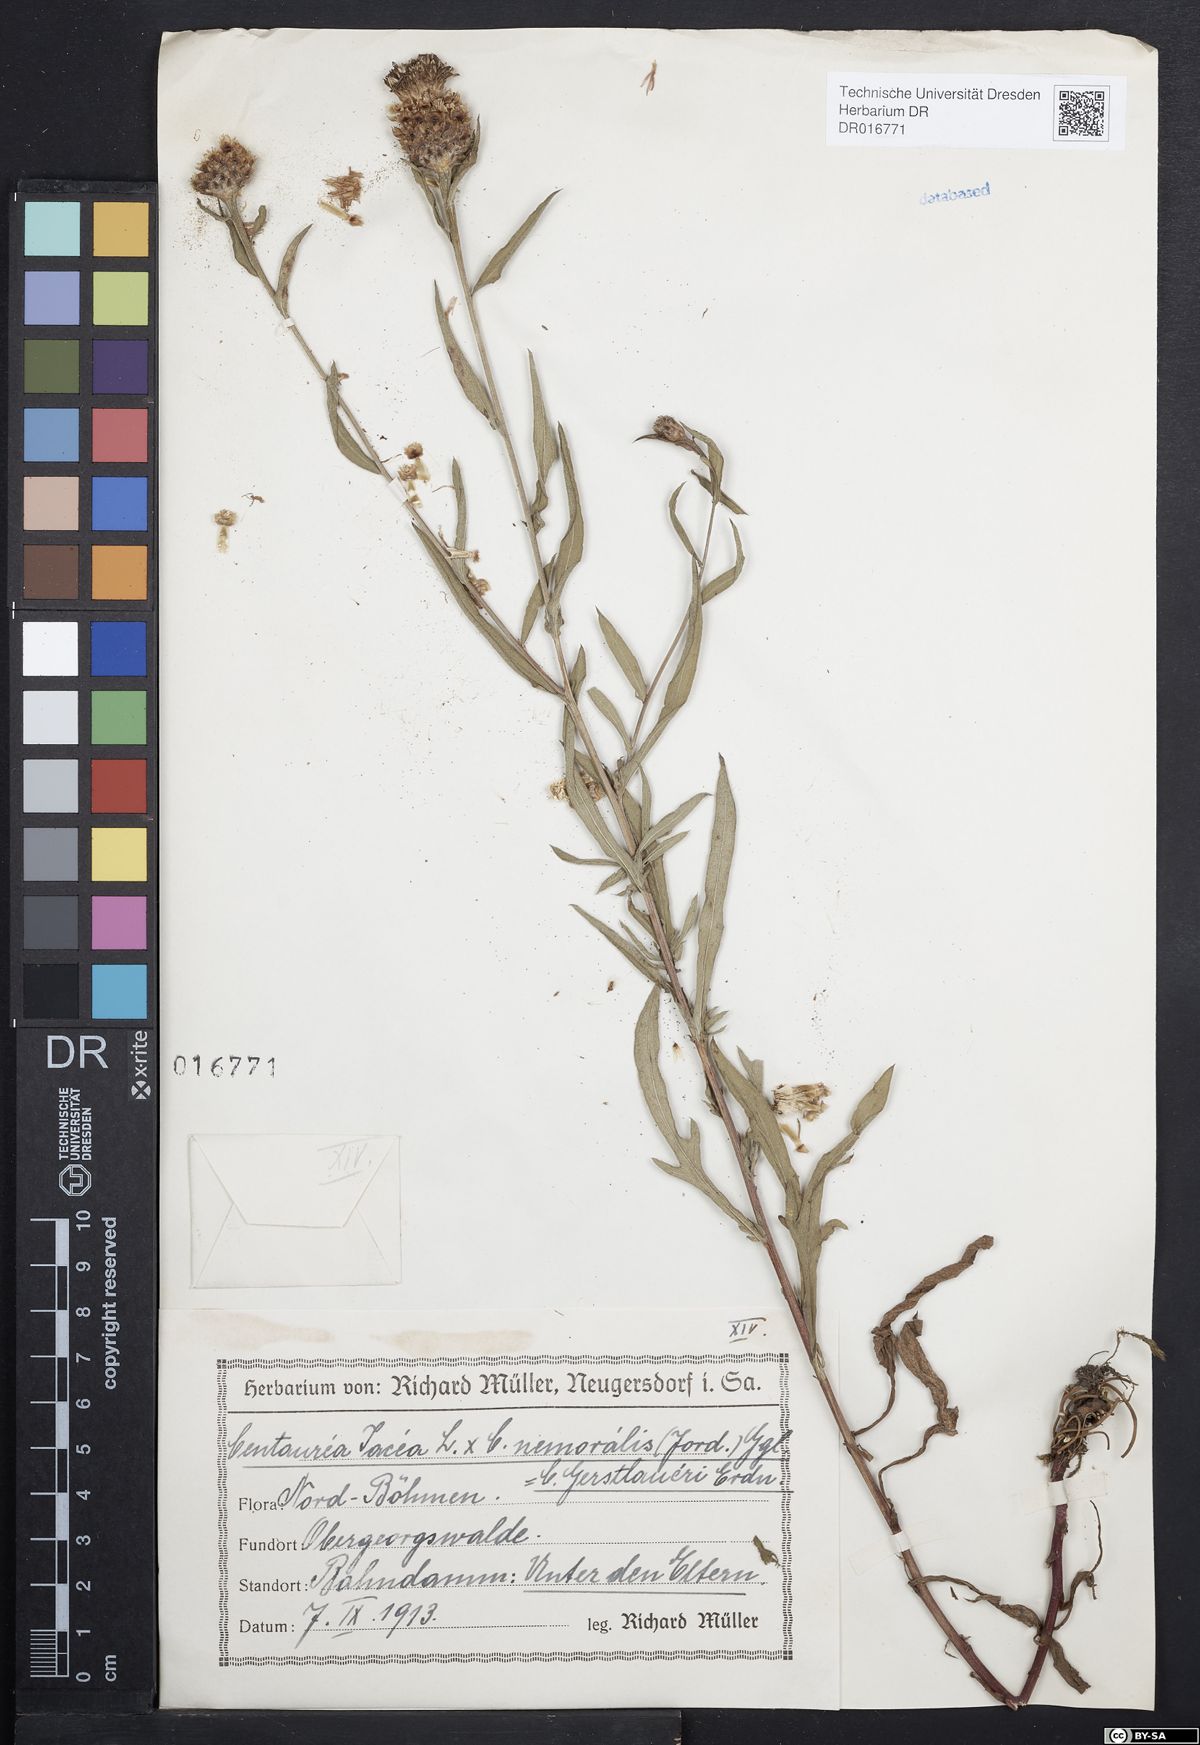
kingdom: Plantae
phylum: Tracheophyta
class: Magnoliopsida
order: Asterales
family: Asteraceae
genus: Centaurea
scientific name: Centaurea jacea
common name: Brown knapweed
